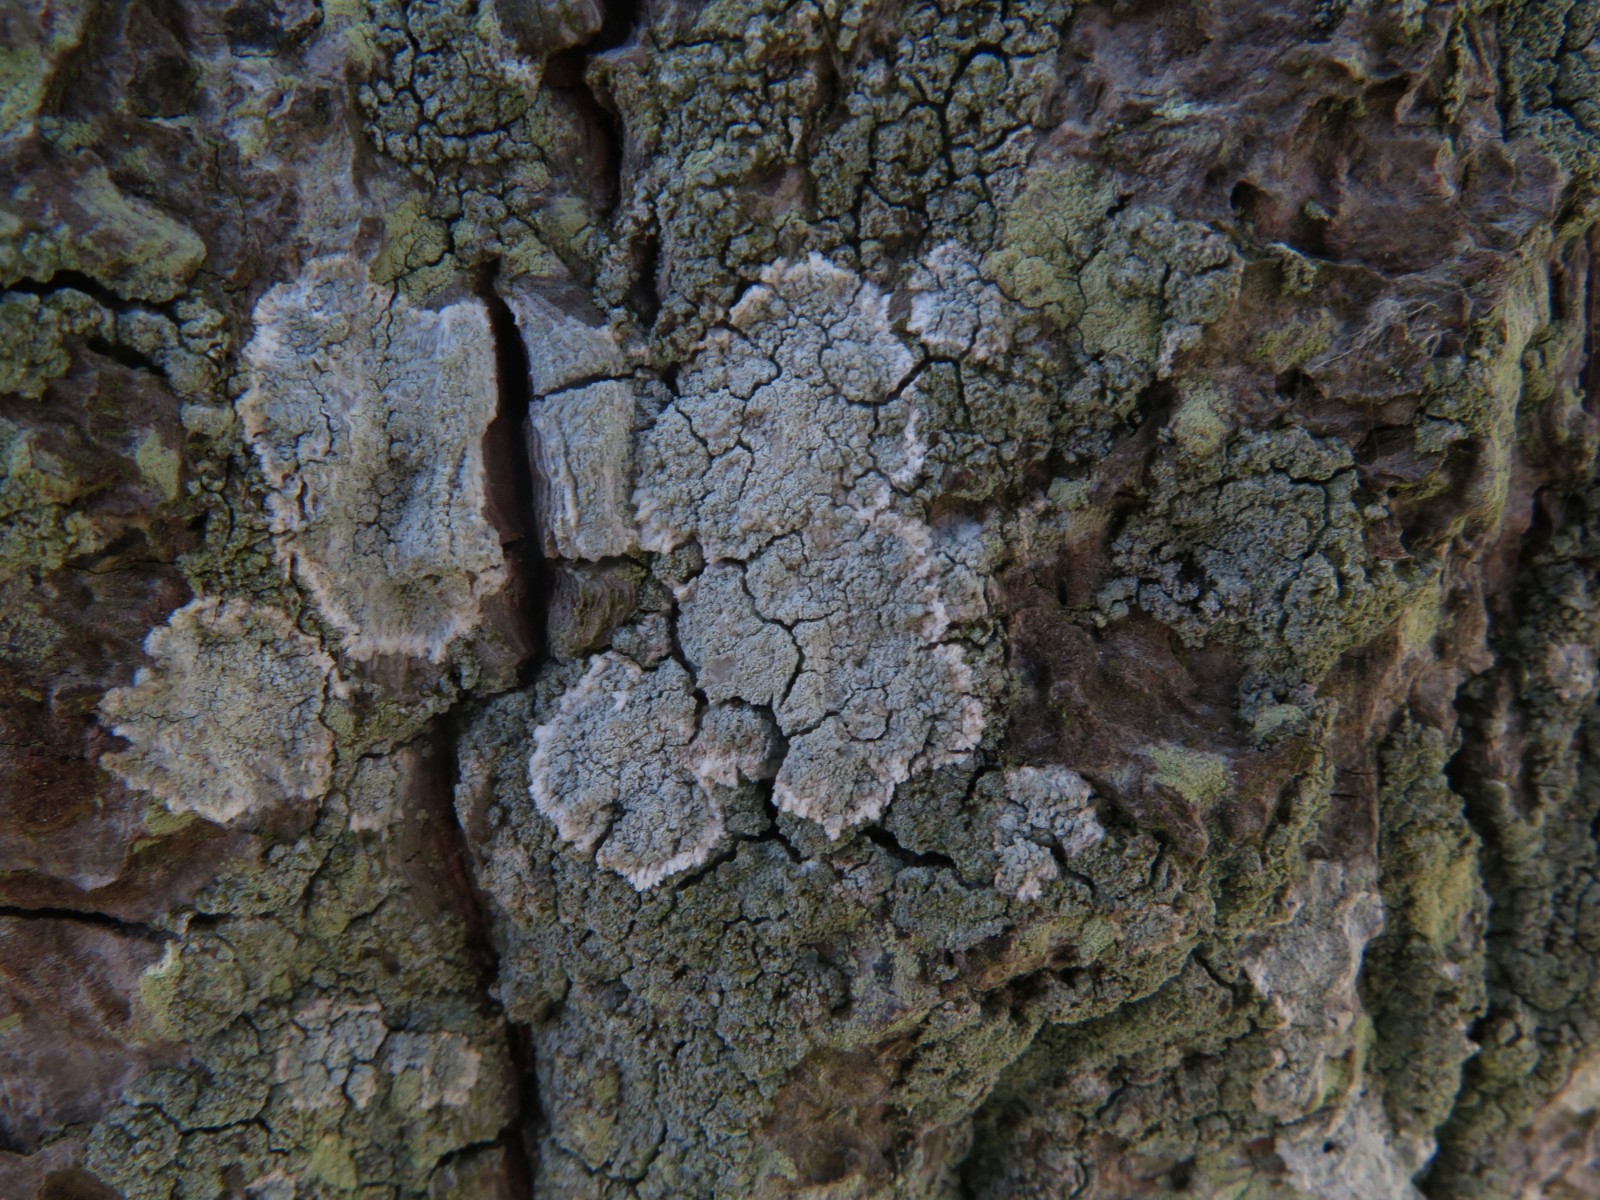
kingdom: Fungi
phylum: Ascomycota
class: Lecanoromycetes
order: Lecanorales
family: Haematommataceae
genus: Haematomma
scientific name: Haematomma ochroleucum
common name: gul trådkantlav
